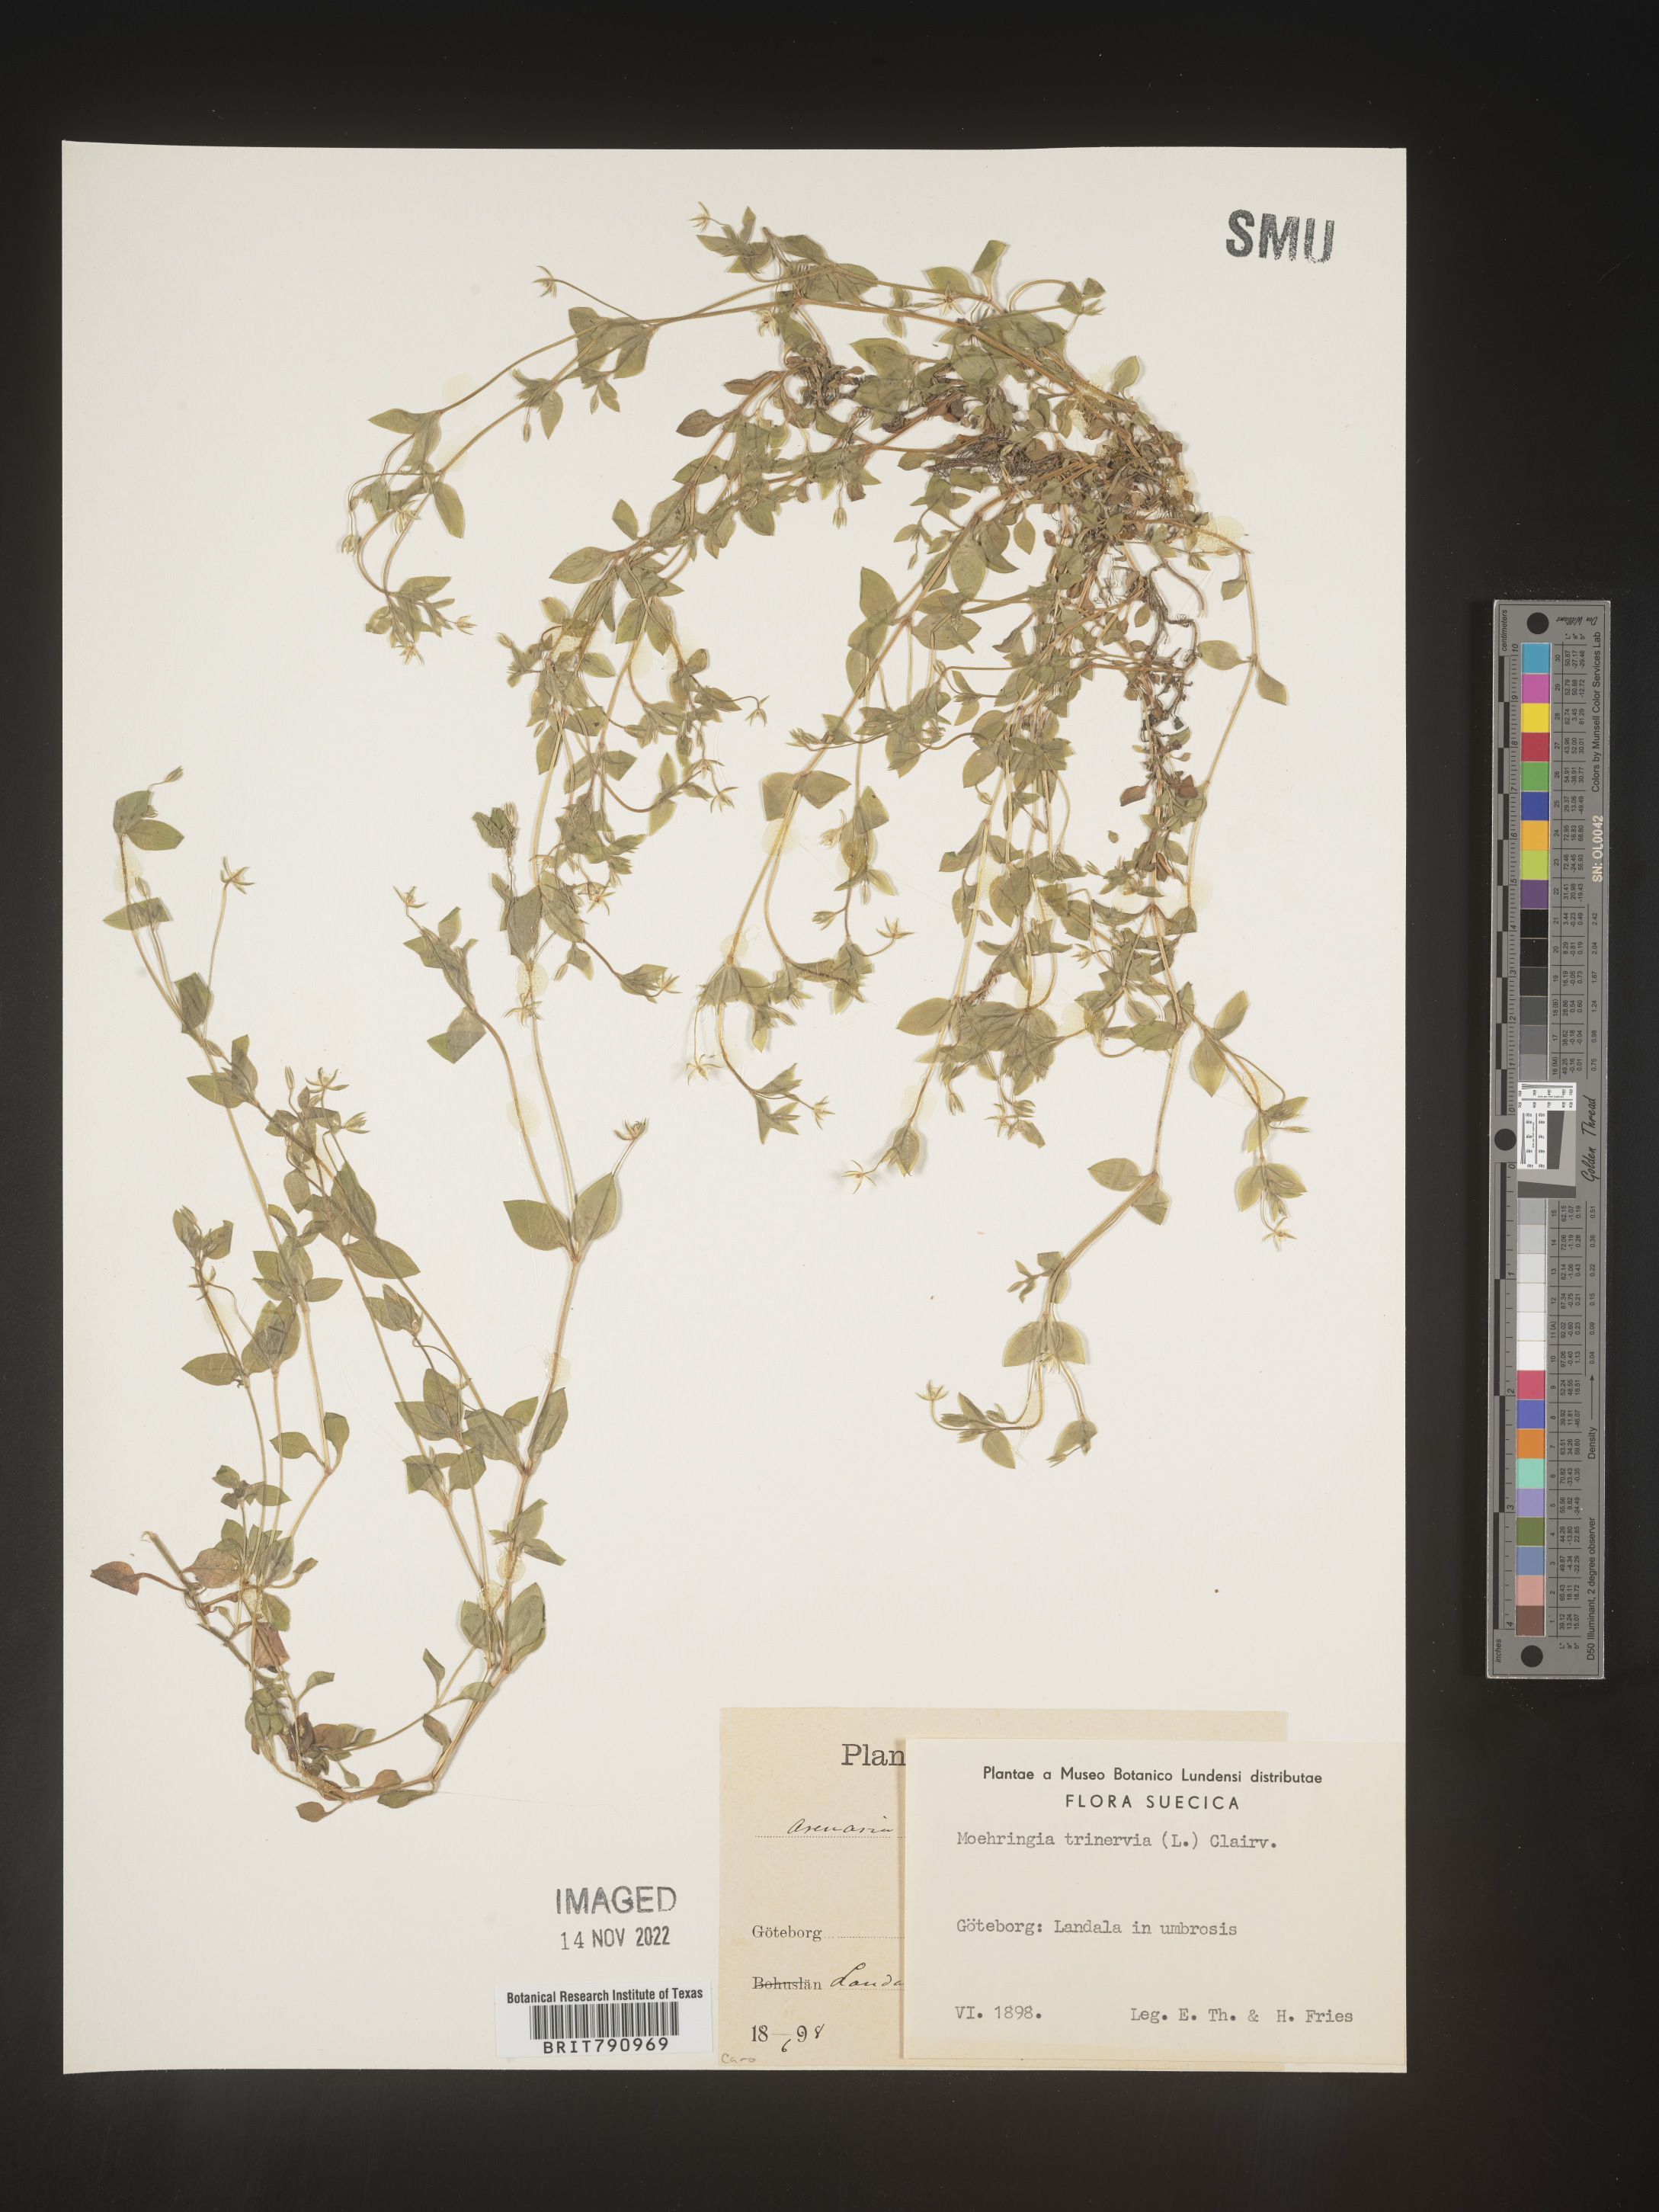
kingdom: Plantae
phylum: Tracheophyta
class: Magnoliopsida
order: Caryophyllales
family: Caryophyllaceae
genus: Moehringia
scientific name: Moehringia
